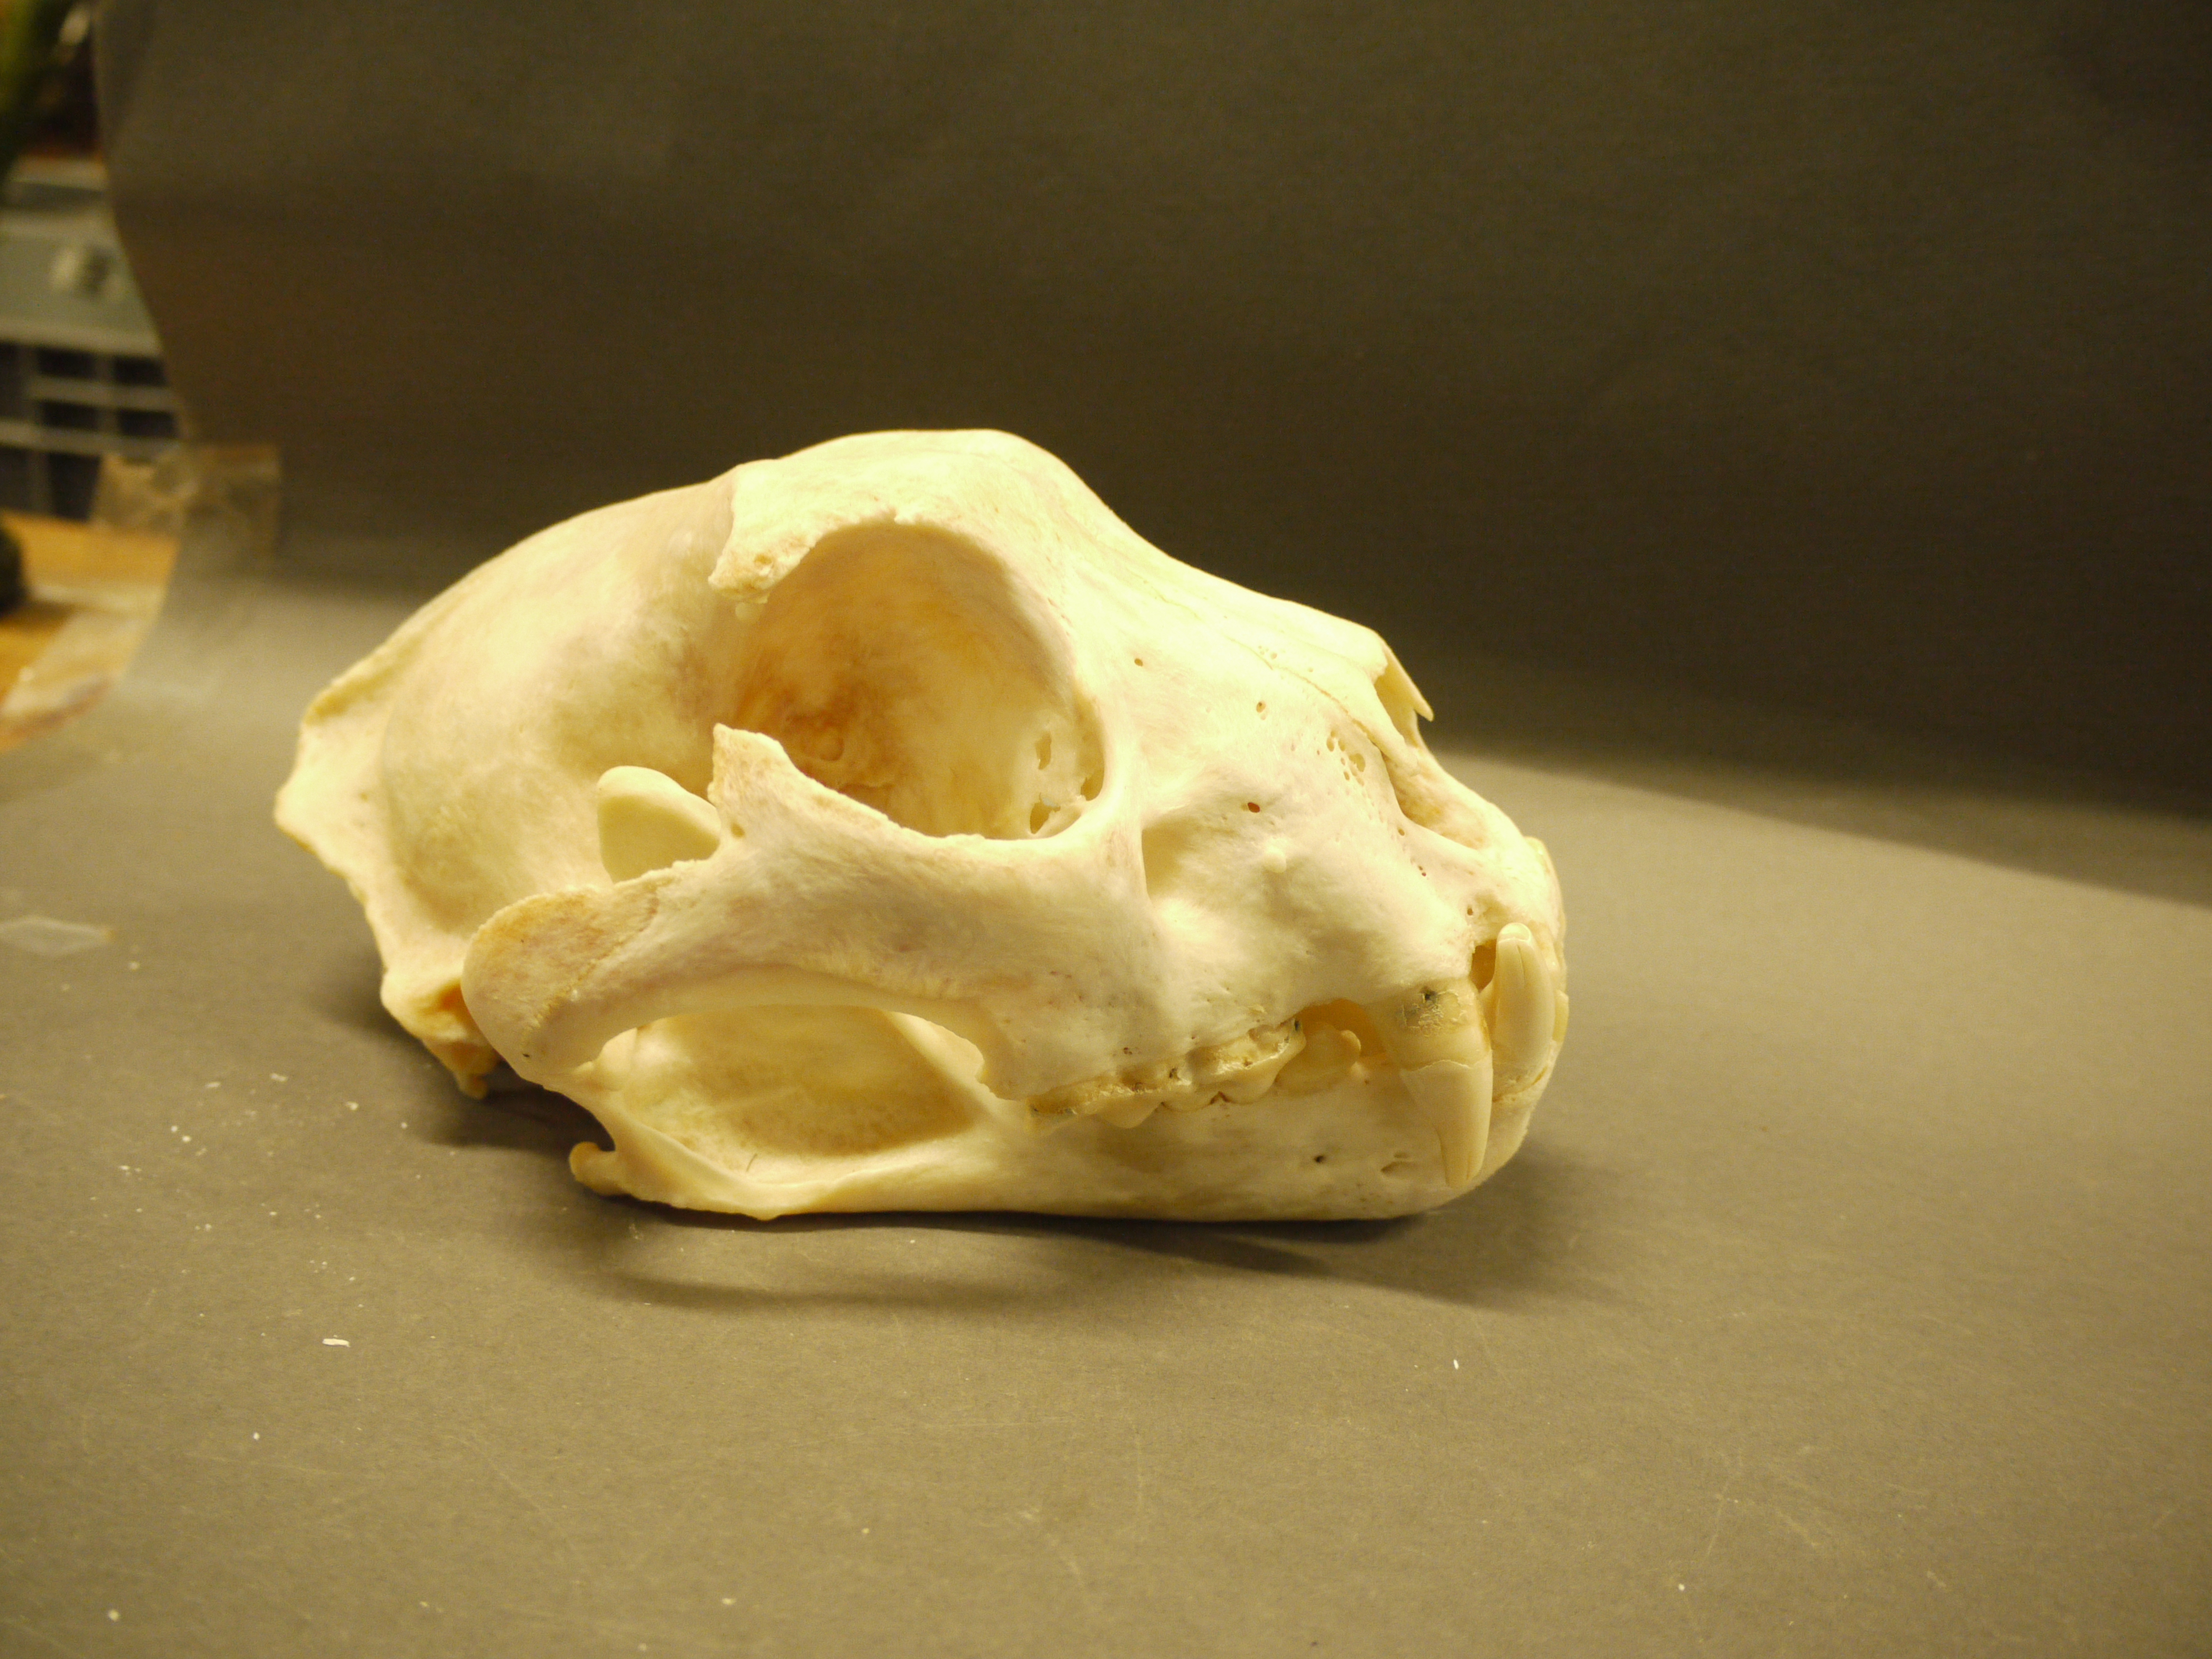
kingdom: Animalia
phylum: Chordata
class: Mammalia
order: Carnivora
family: Felidae
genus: Uncia
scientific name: Uncia uncia
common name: Snow leopard
